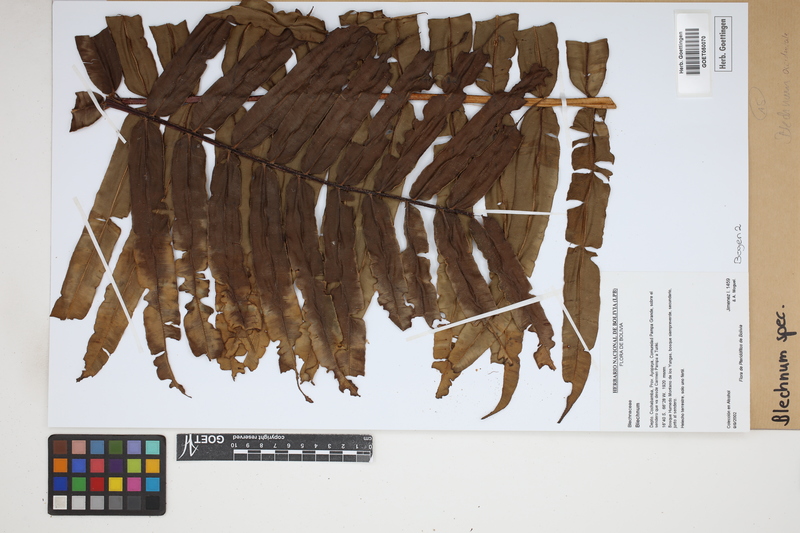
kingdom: Plantae
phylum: Tracheophyta
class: Polypodiopsida
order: Polypodiales
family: Blechnaceae
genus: Blechnum
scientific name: Blechnum
